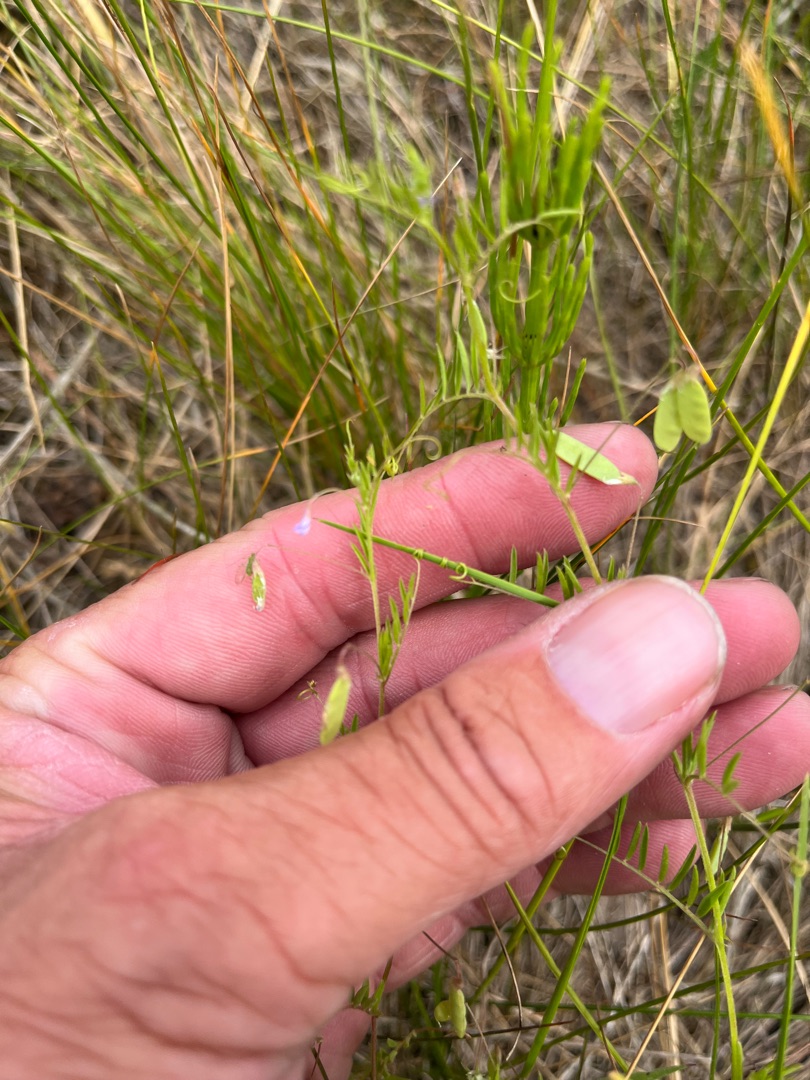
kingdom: Plantae
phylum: Tracheophyta
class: Magnoliopsida
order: Fabales
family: Fabaceae
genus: Vicia
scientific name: Vicia tetrasperma
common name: Tadder-vikke
